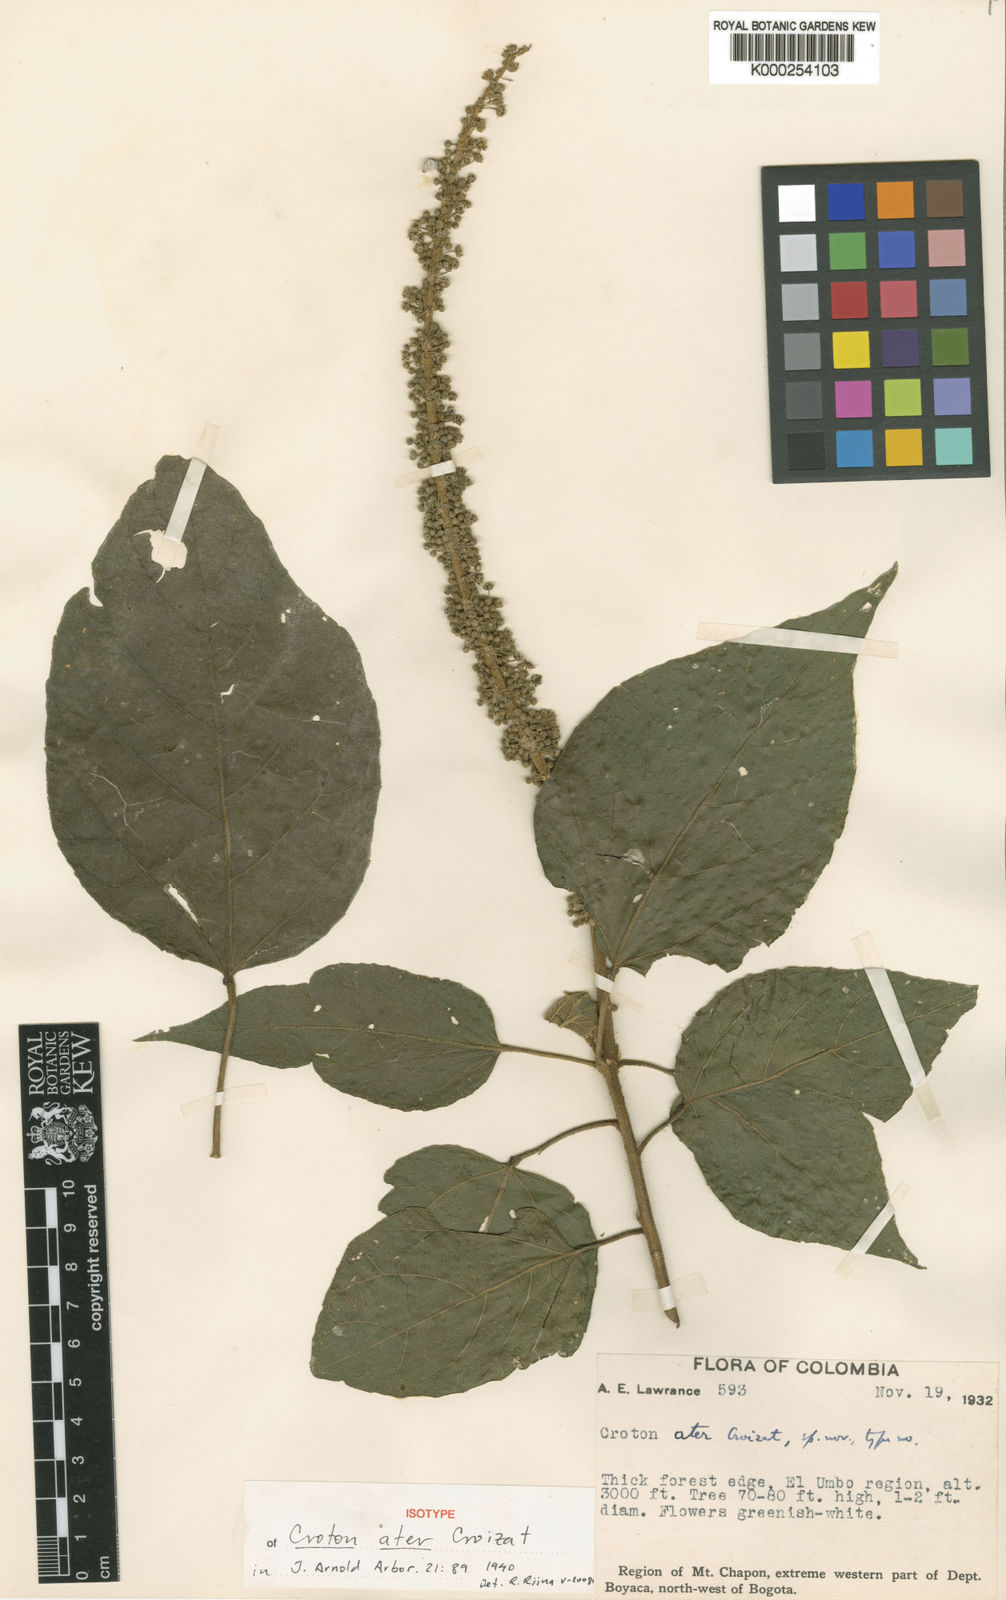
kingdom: Plantae
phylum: Tracheophyta
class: Magnoliopsida
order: Malpighiales
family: Euphorbiaceae
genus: Croton
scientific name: Croton ater
